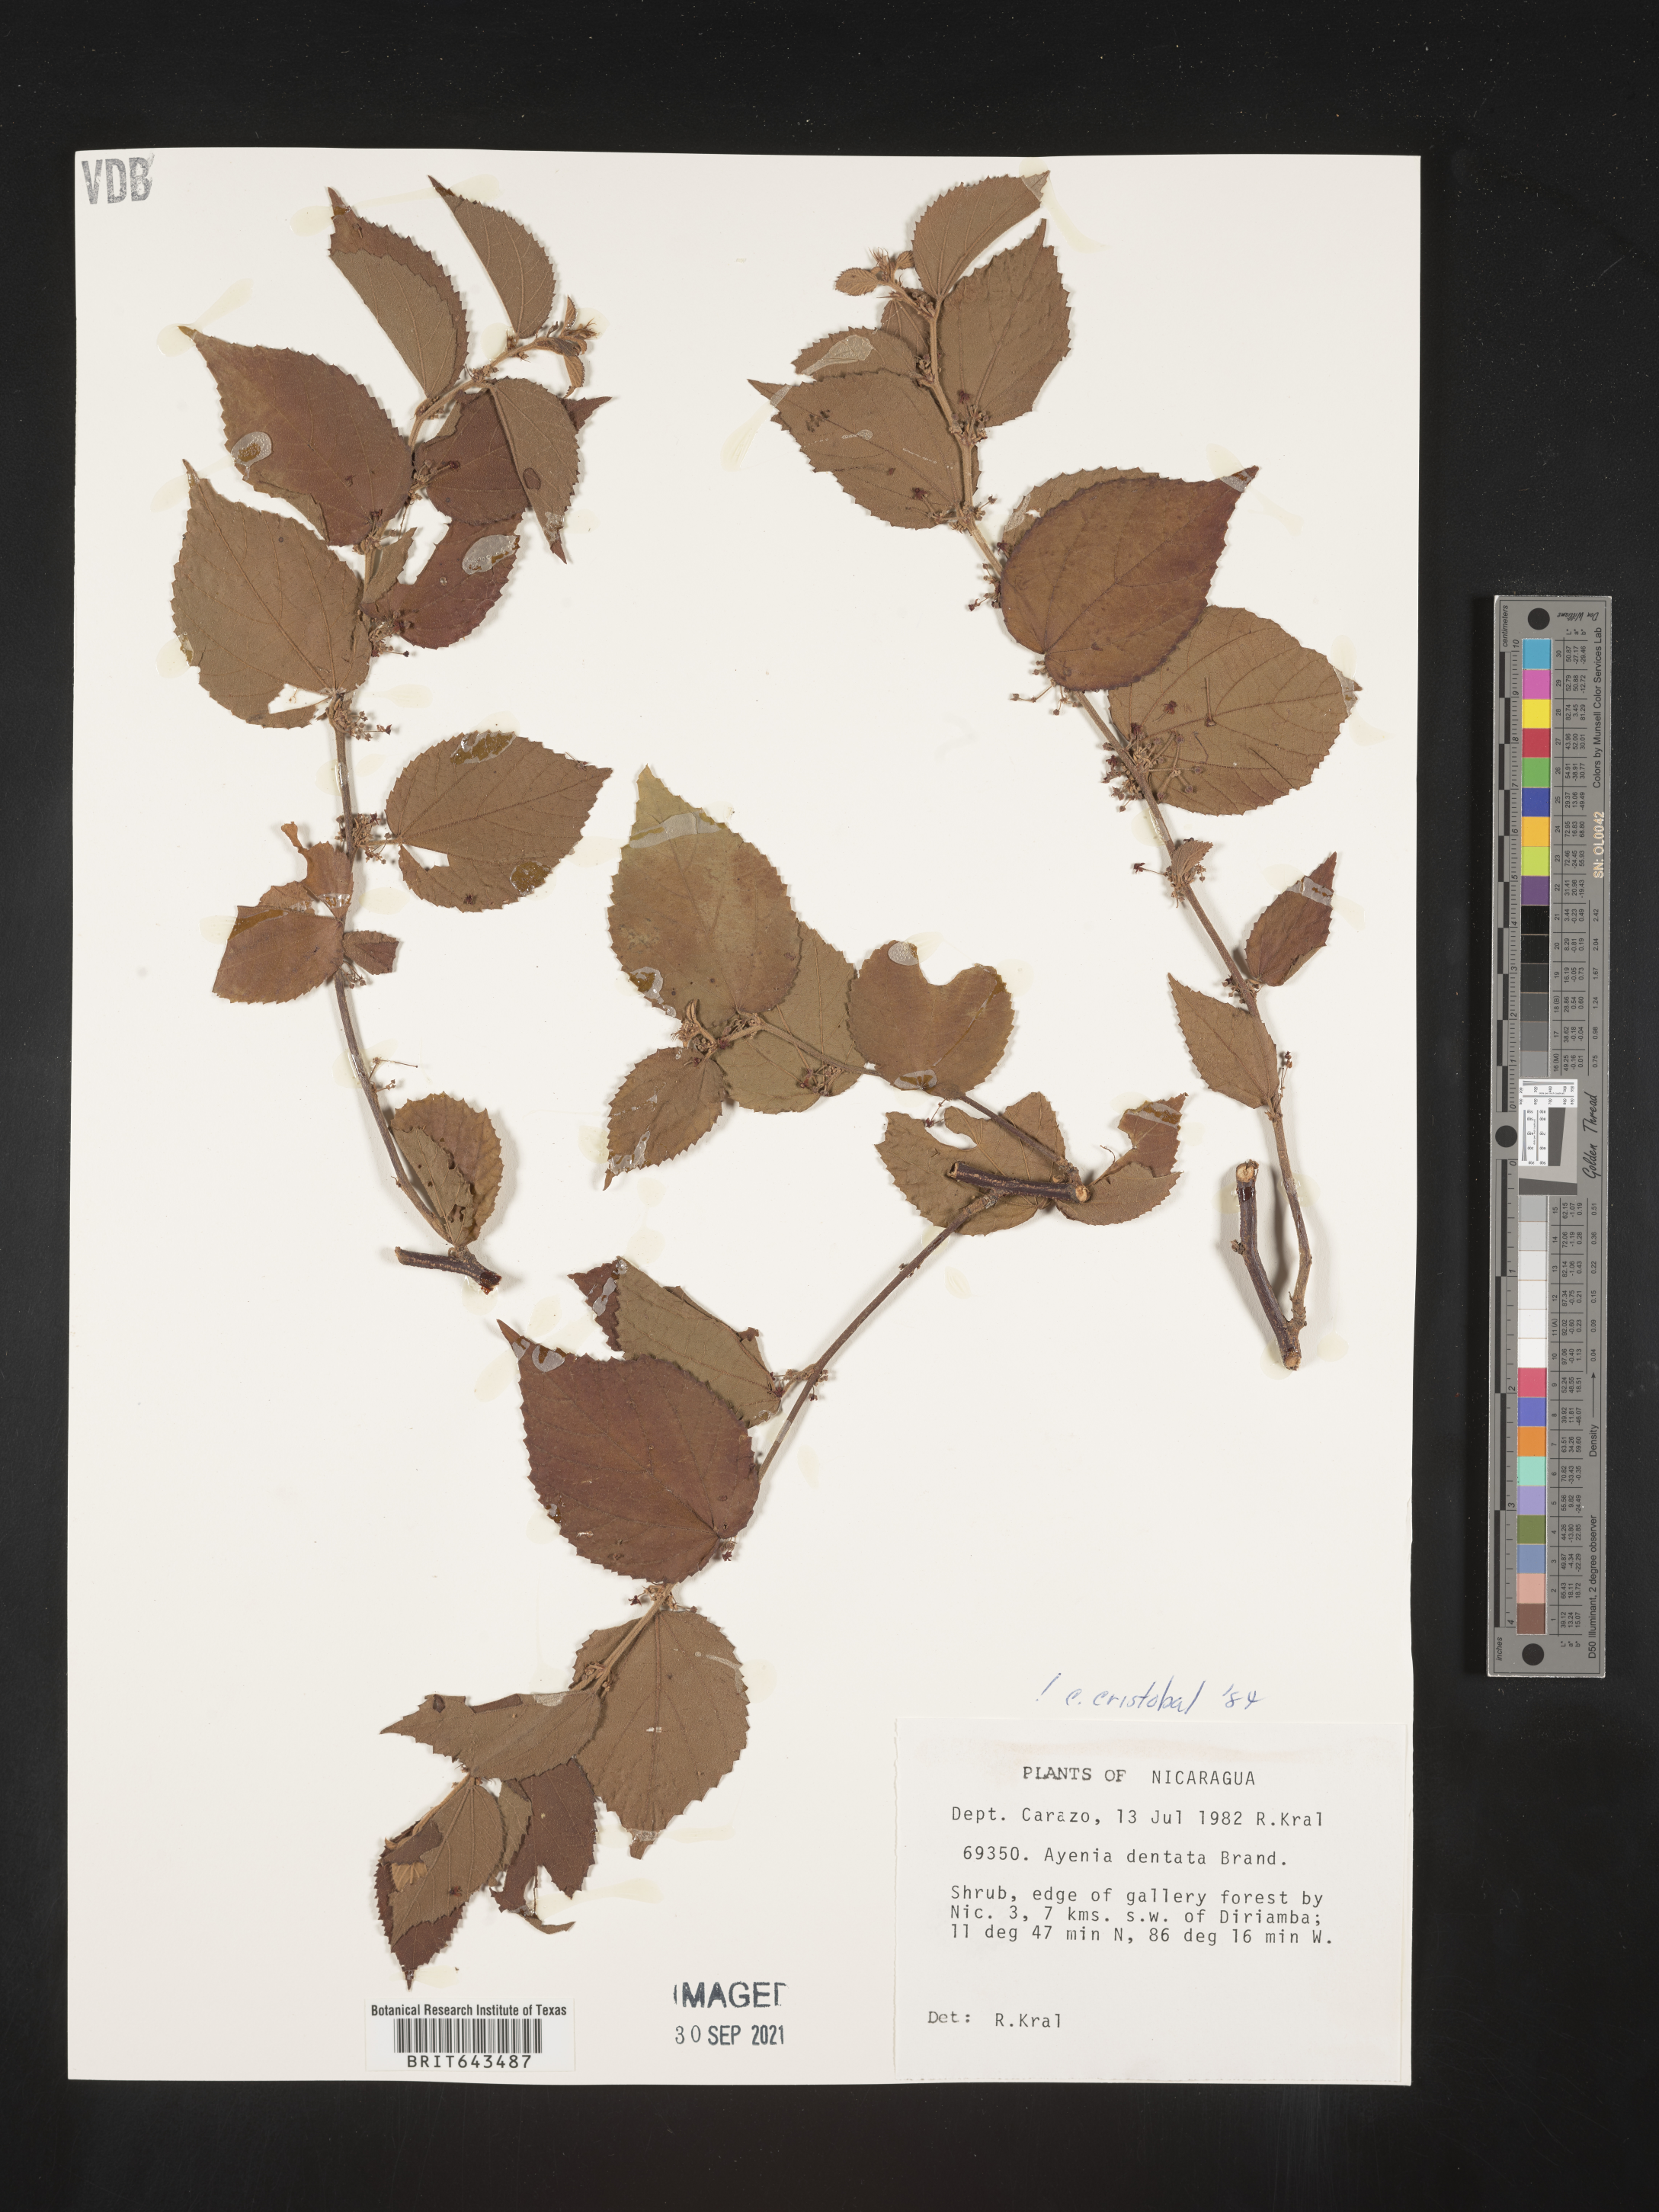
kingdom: Plantae
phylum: Tracheophyta
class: Magnoliopsida
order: Malvales
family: Malvaceae
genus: Ayenia
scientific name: Ayenia
